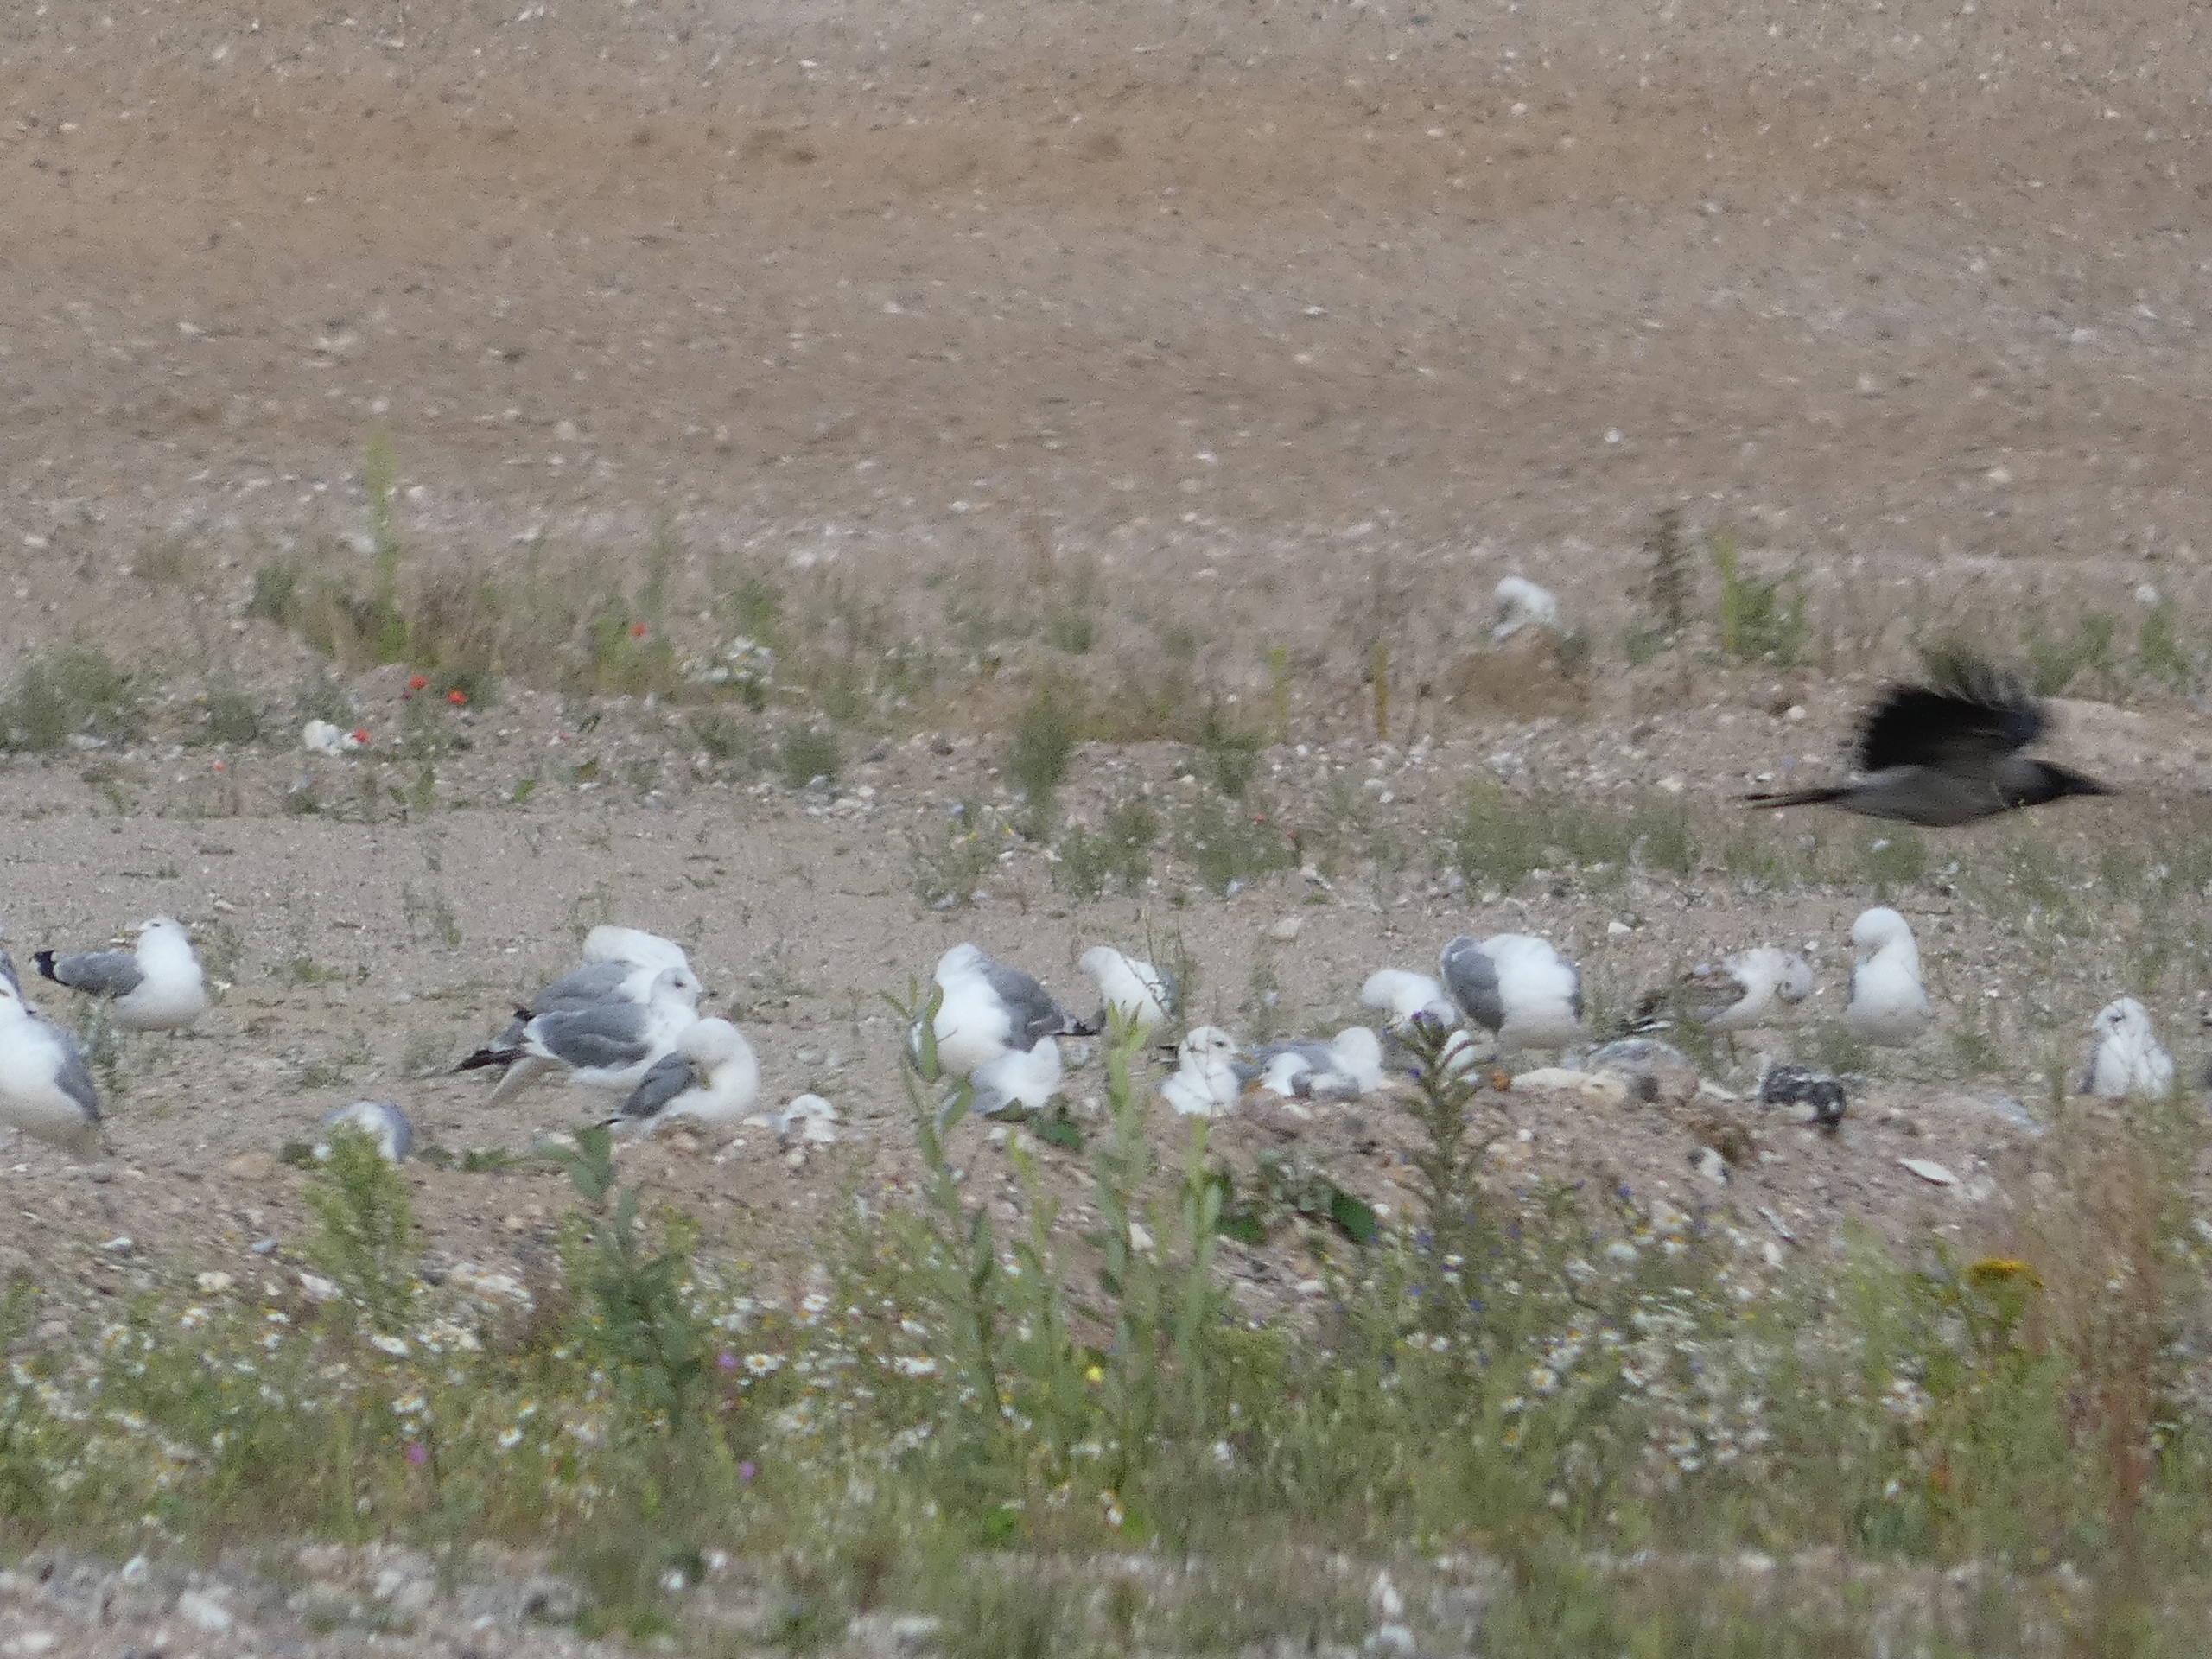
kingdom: Animalia
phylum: Chordata
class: Aves
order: Passeriformes
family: Corvidae
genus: Corvus
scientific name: Corvus cornix
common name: Gråkrage
